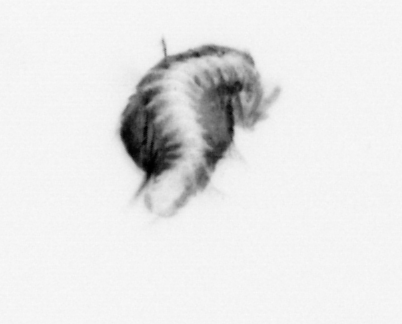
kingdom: Animalia
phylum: Annelida
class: Polychaeta
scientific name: Polychaeta
